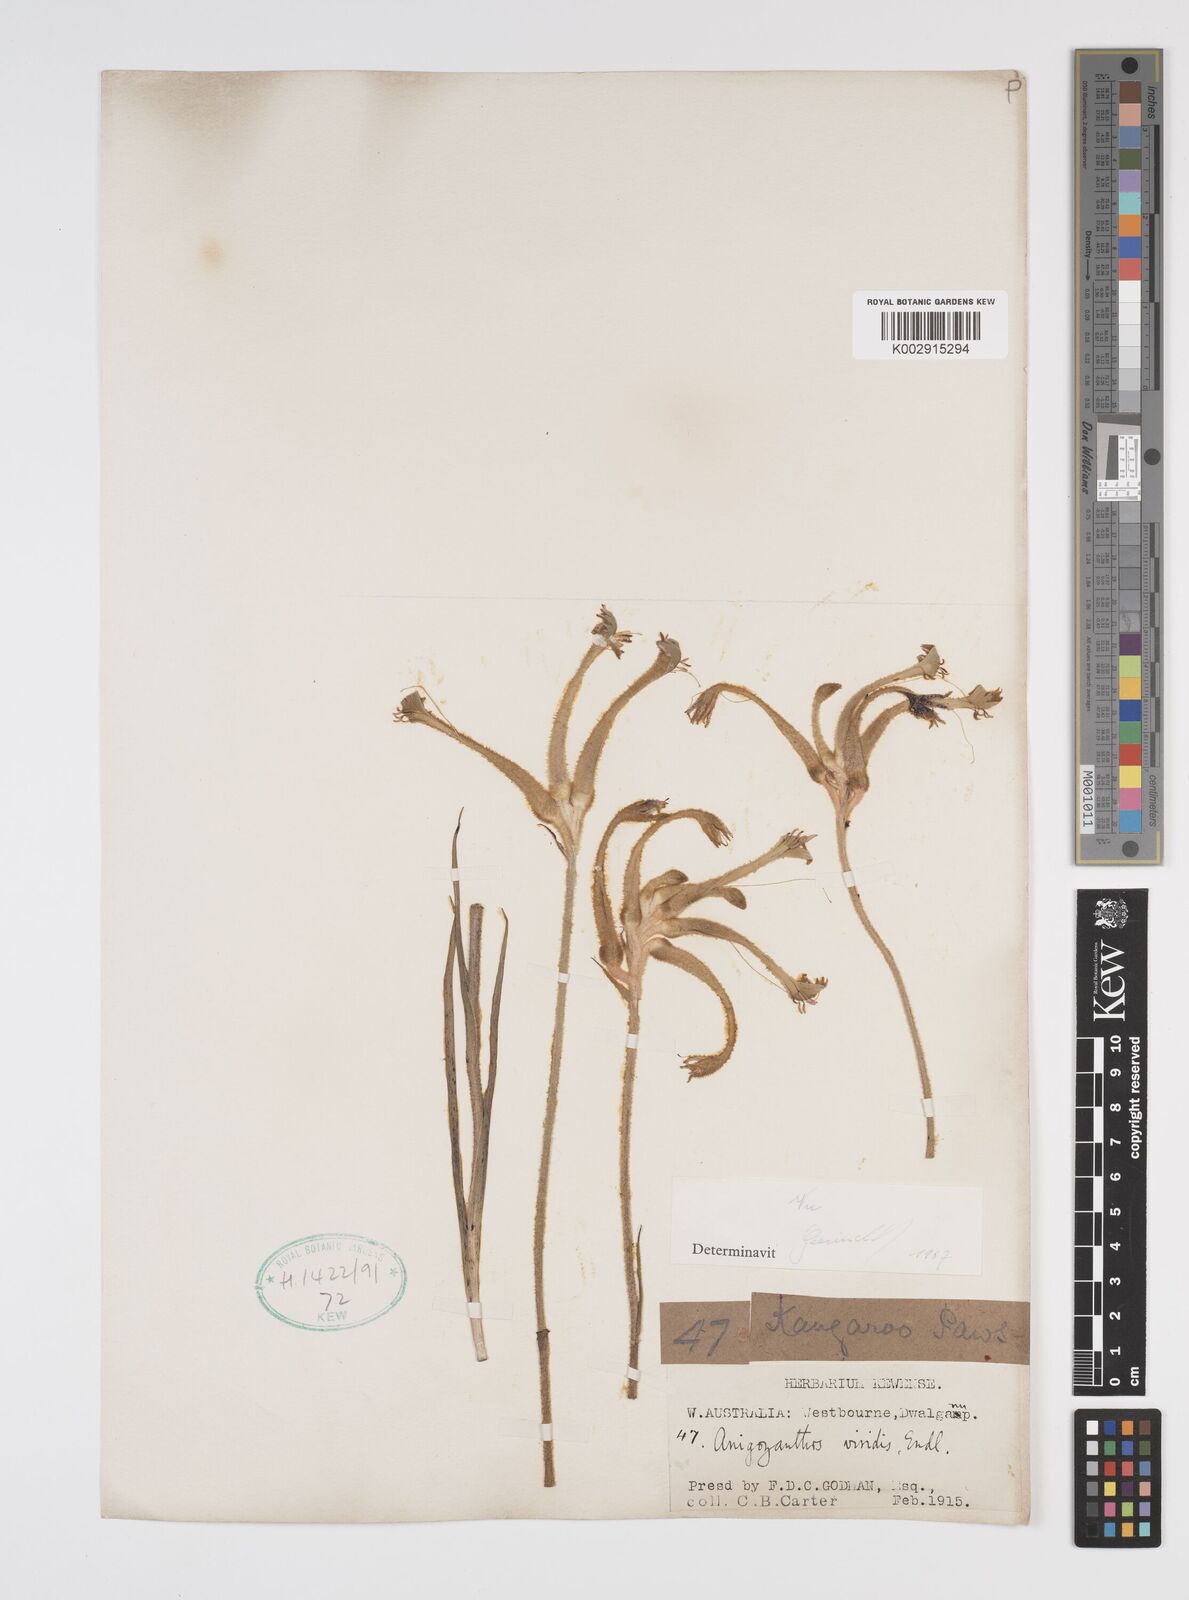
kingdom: Plantae
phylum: Tracheophyta
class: Liliopsida
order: Commelinales
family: Haemodoraceae
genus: Anigozanthos
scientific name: Anigozanthos viridis
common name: Green kangaroo-paw
